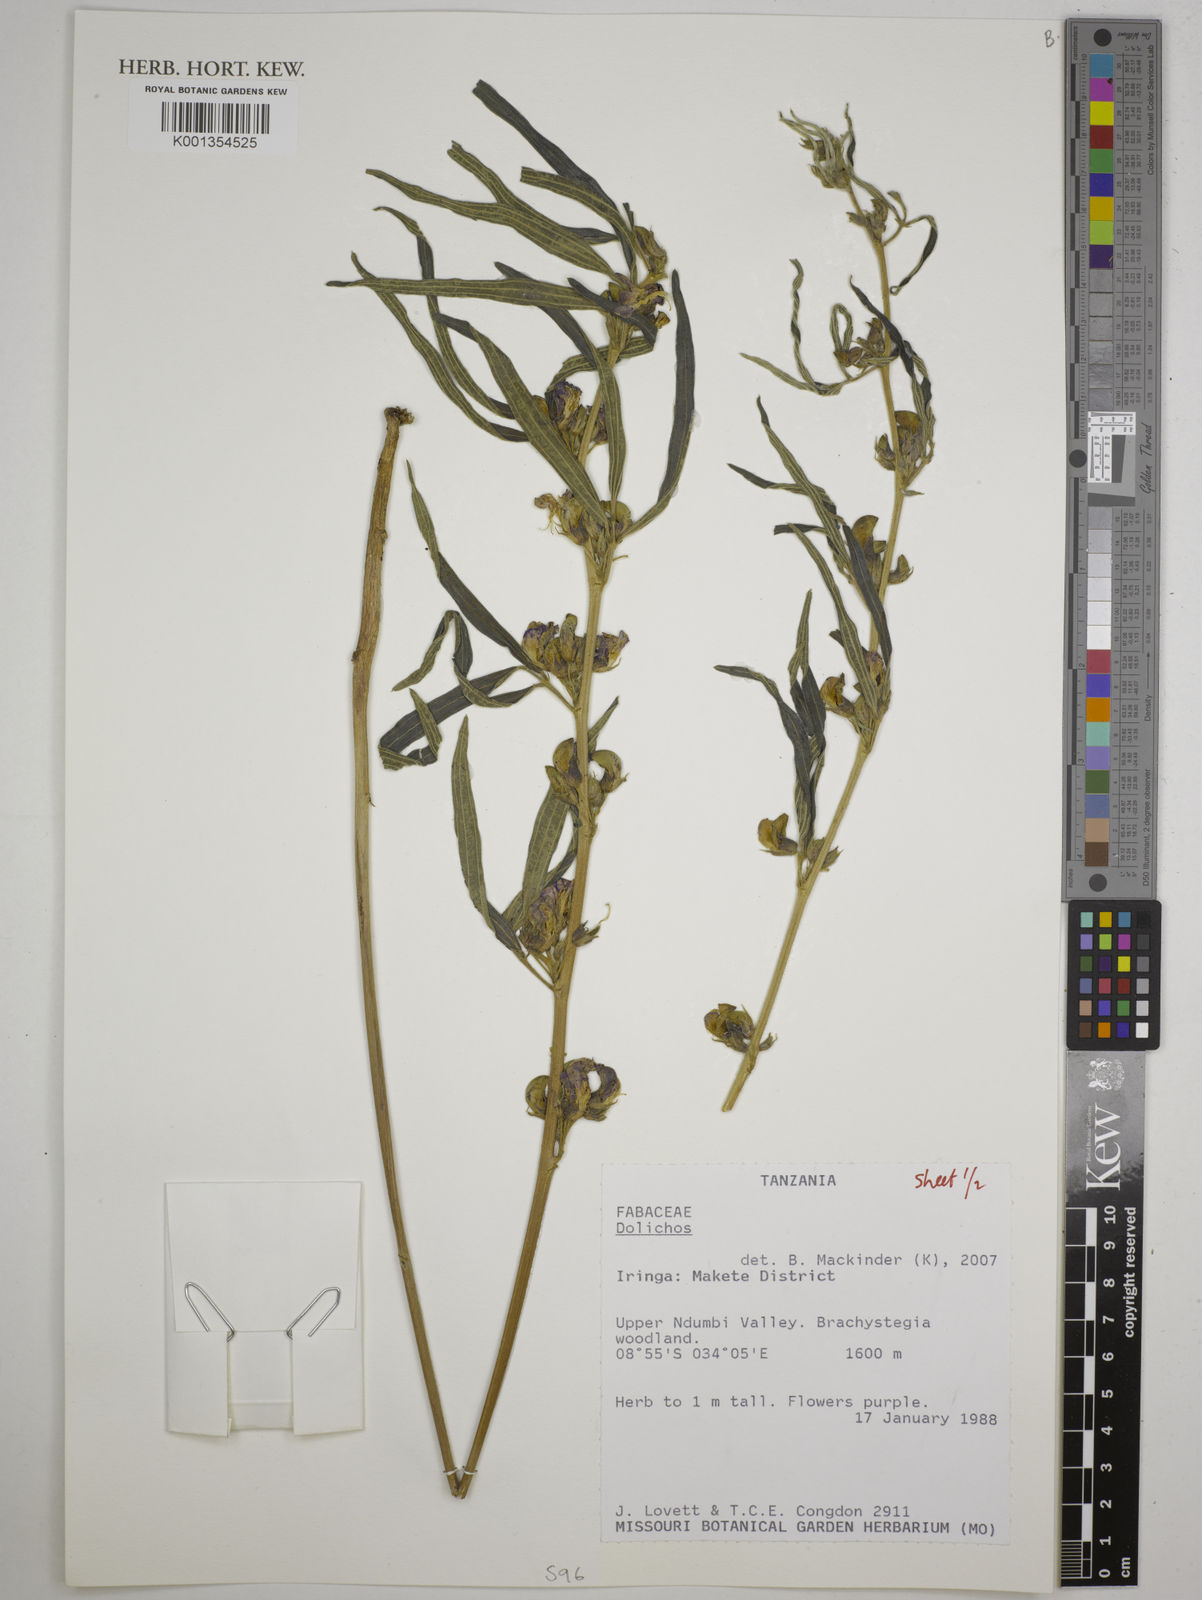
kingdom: Plantae
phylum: Tracheophyta
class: Magnoliopsida
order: Fabales
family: Fabaceae
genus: Dolichos
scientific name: Dolichos
